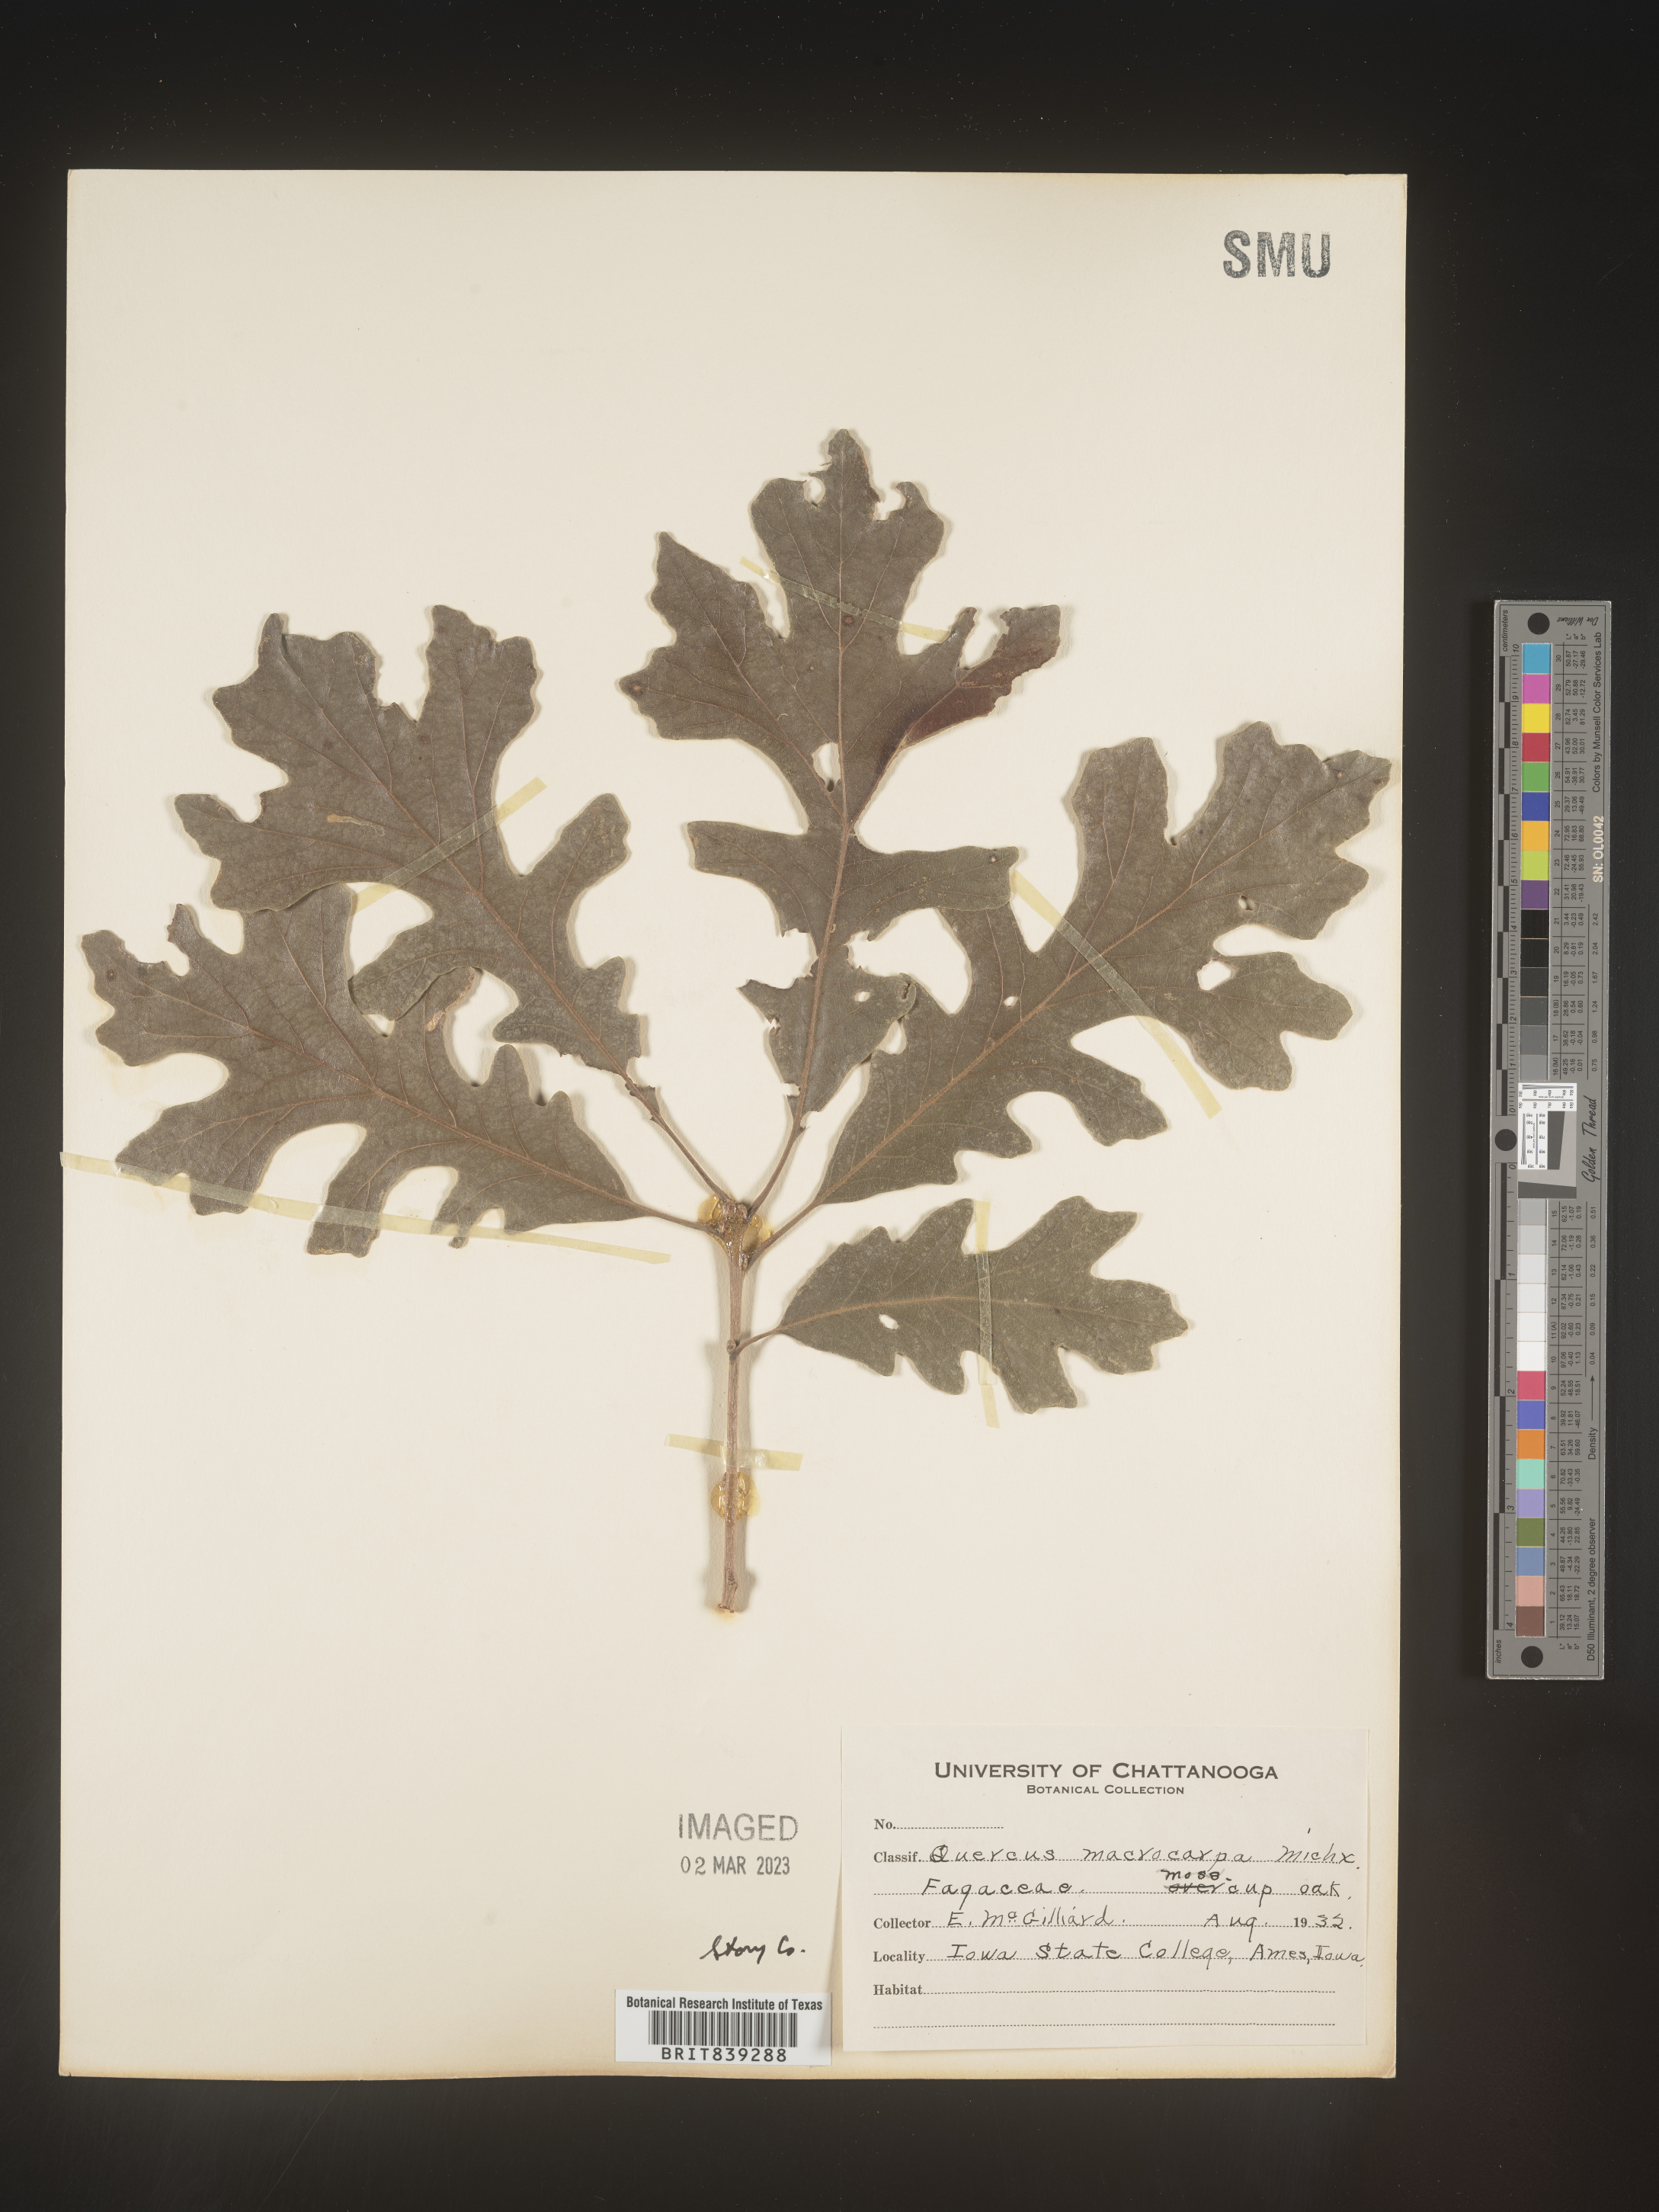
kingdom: Plantae
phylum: Tracheophyta
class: Magnoliopsida
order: Fagales
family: Fagaceae
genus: Quercus
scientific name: Quercus macrocarpa
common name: Bur oak
